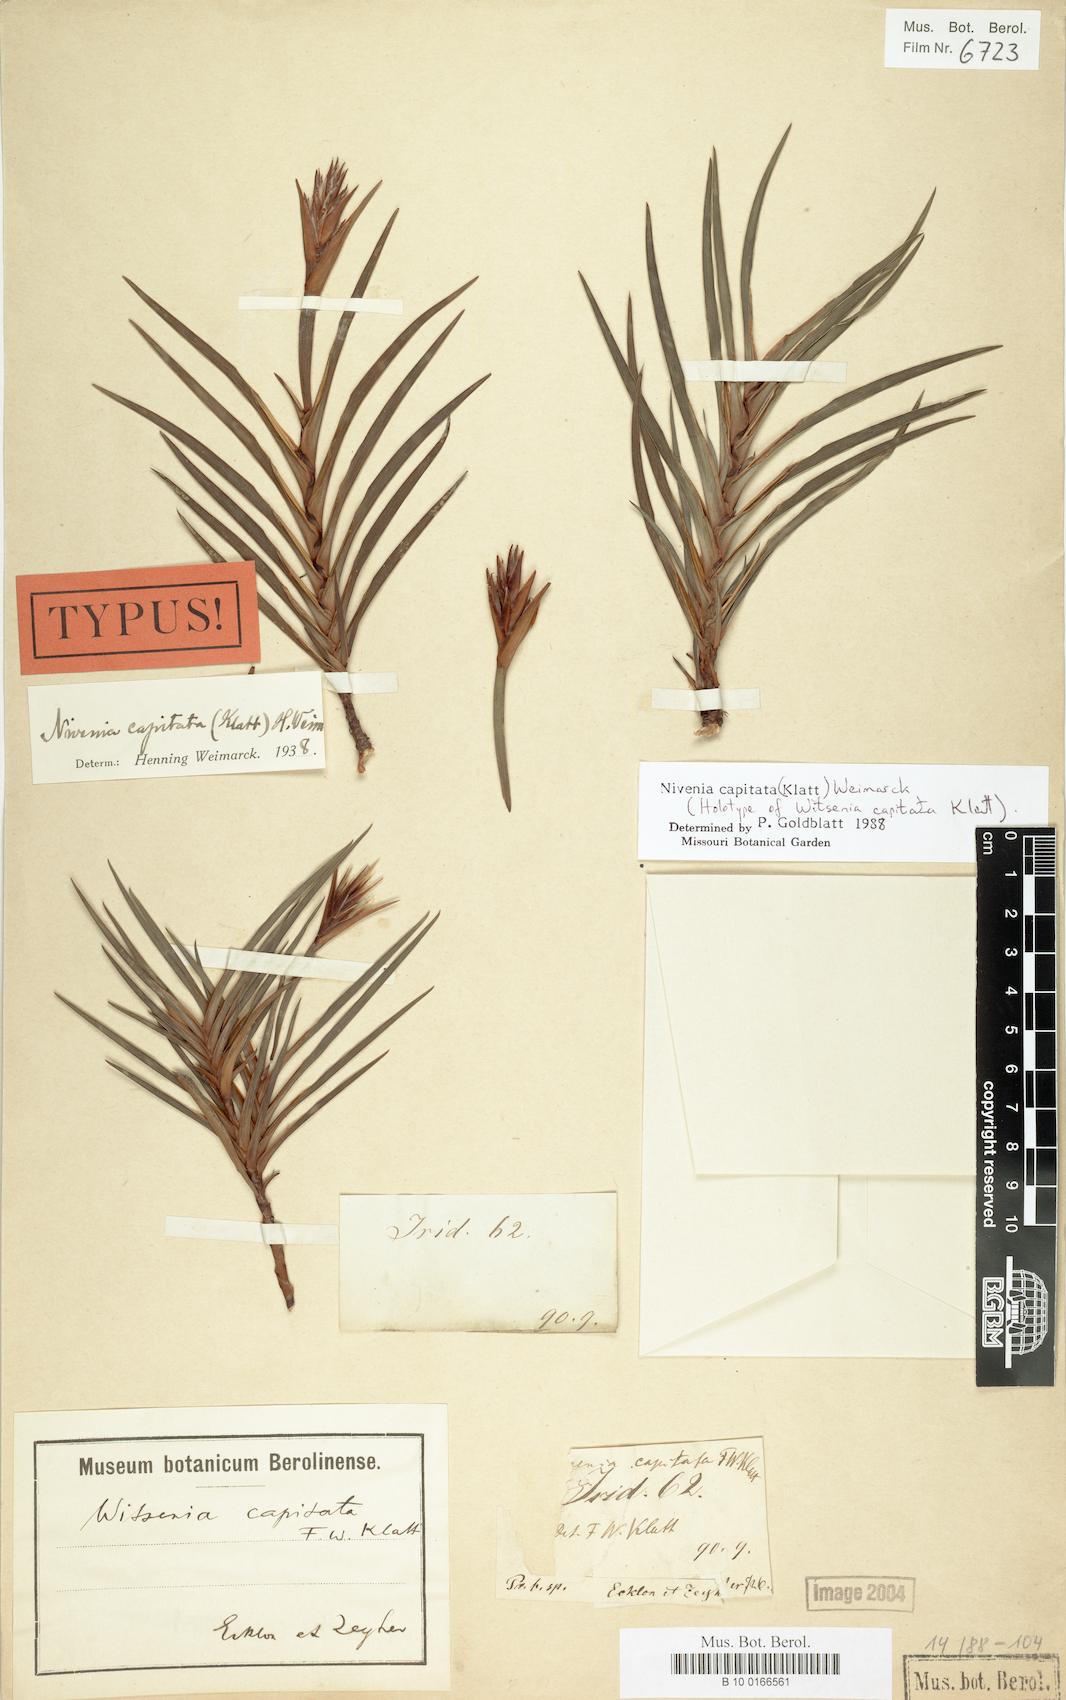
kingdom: Plantae
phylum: Tracheophyta
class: Liliopsida
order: Asparagales
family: Iridaceae
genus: Nivenia
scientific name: Nivenia argentea
